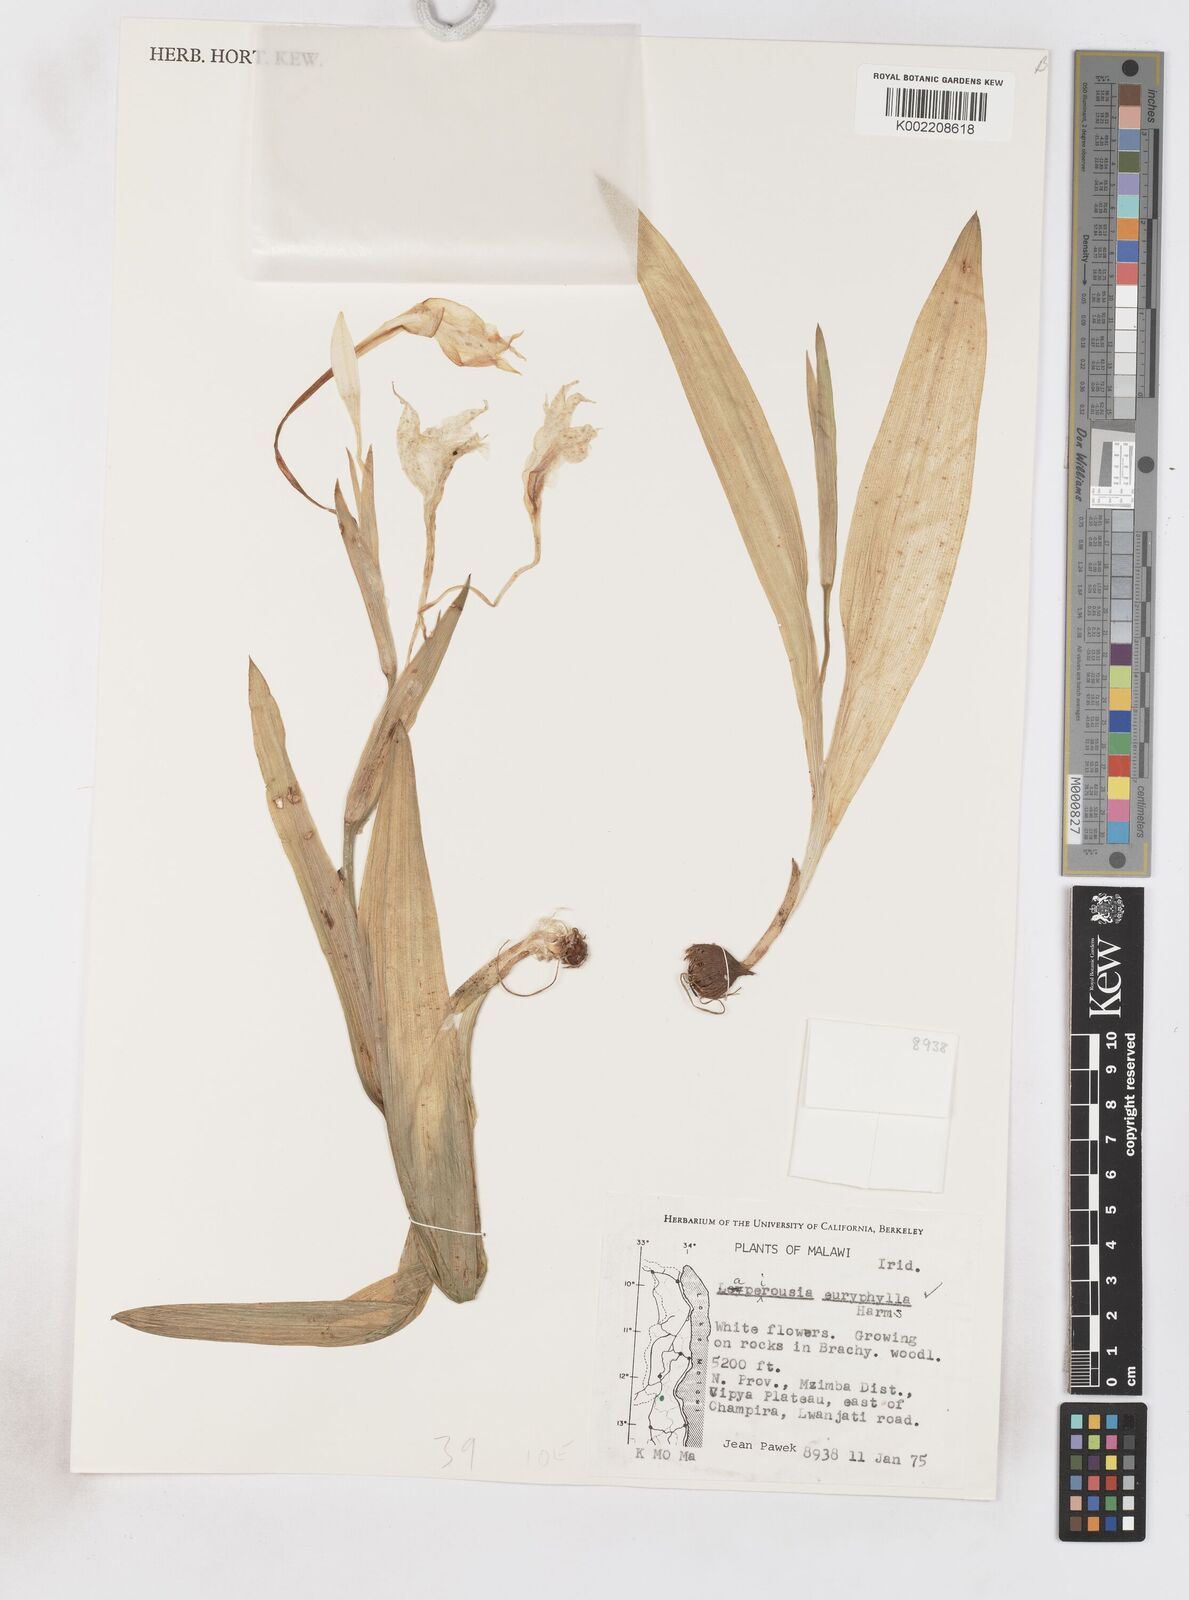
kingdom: Plantae
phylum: Tracheophyta
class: Liliopsida
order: Asparagales
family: Iridaceae
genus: Savannosiphon
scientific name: Savannosiphon euryphylla
